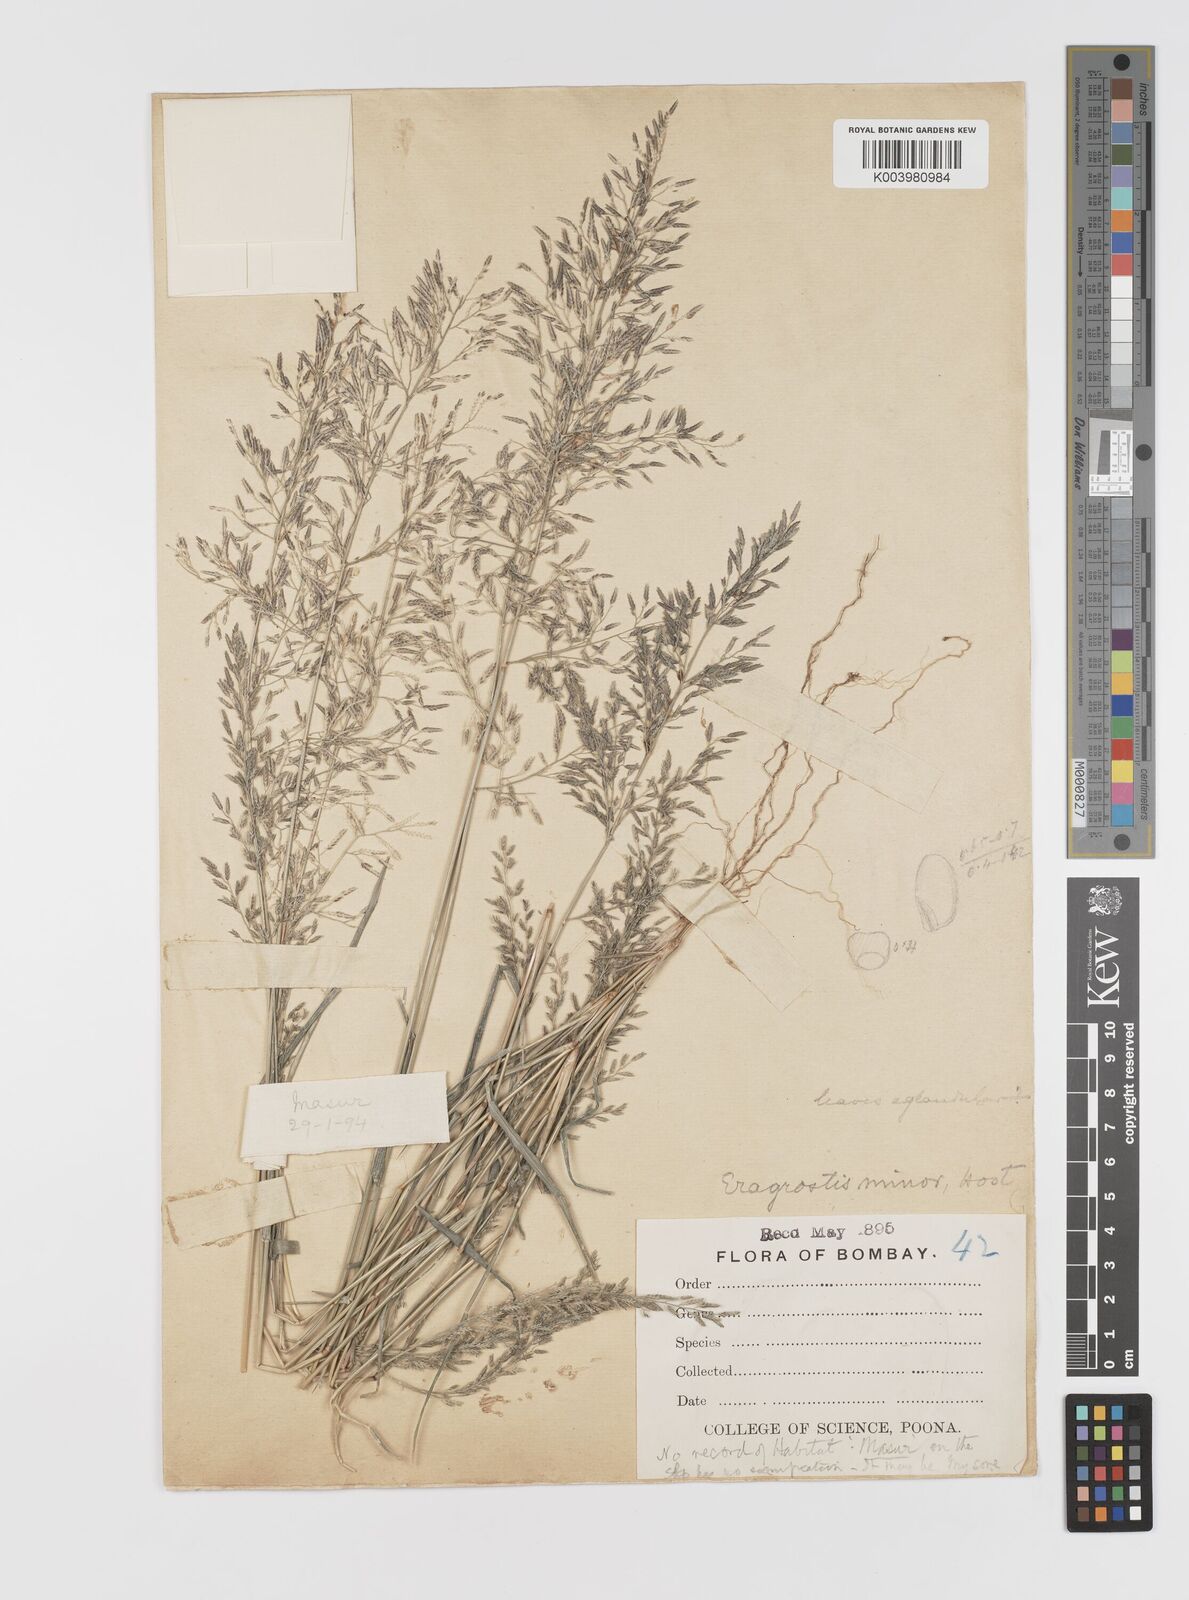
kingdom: Plantae
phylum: Tracheophyta
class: Liliopsida
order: Poales
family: Poaceae
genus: Eragrostis
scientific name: Eragrostis minor
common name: Small love-grass
